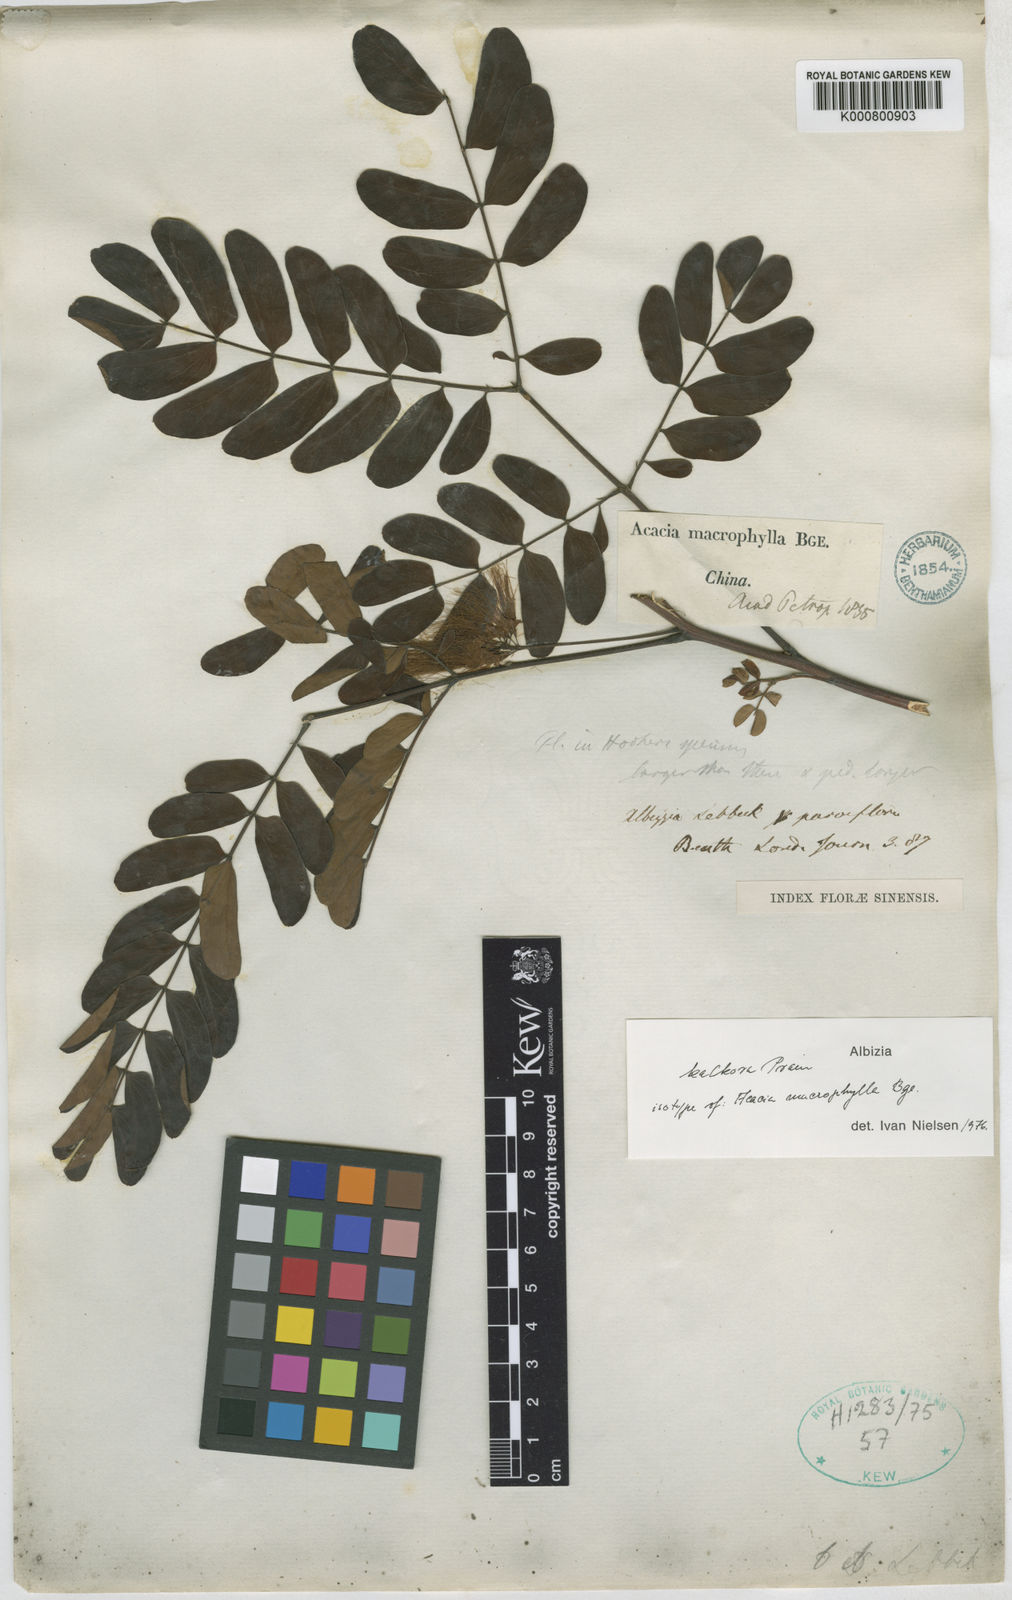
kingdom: Plantae
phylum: Tracheophyta
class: Magnoliopsida
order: Fabales
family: Fabaceae
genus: Albizia
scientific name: Albizia
